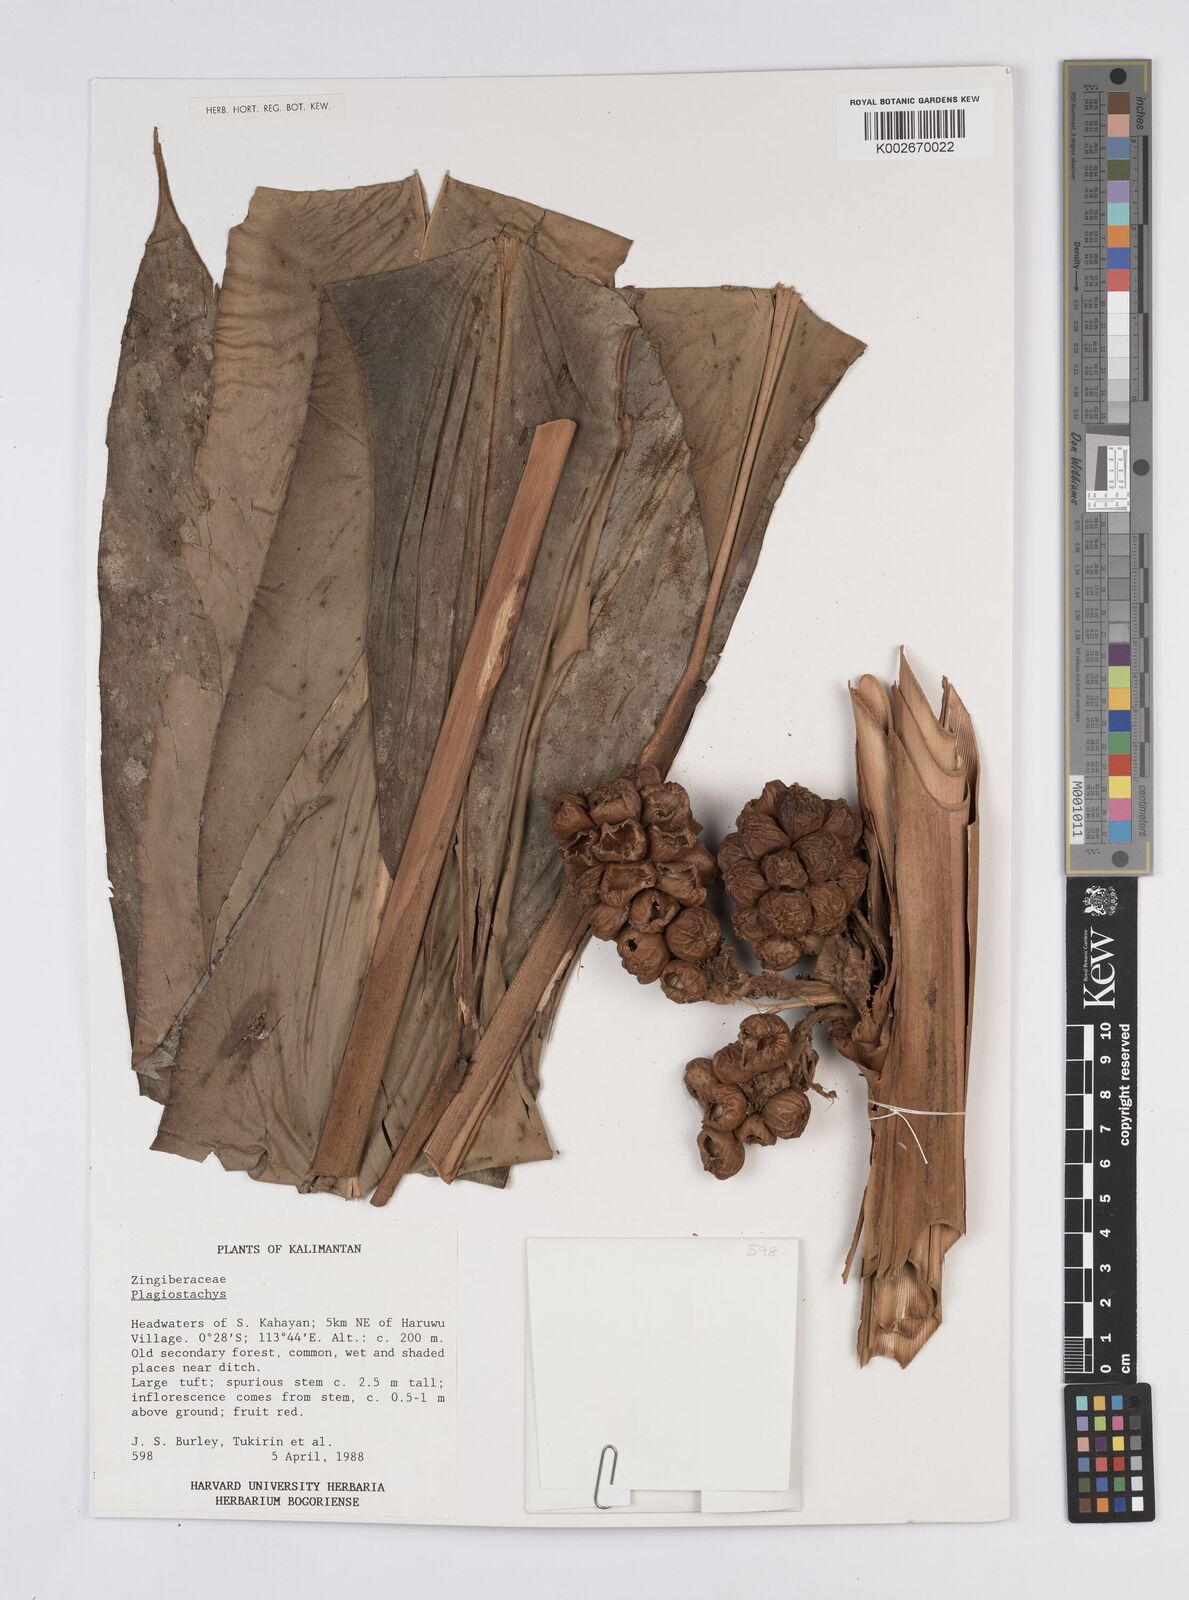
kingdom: Plantae
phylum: Tracheophyta
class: Liliopsida
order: Zingiberales
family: Zingiberaceae
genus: Plagiostachys
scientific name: Plagiostachys
